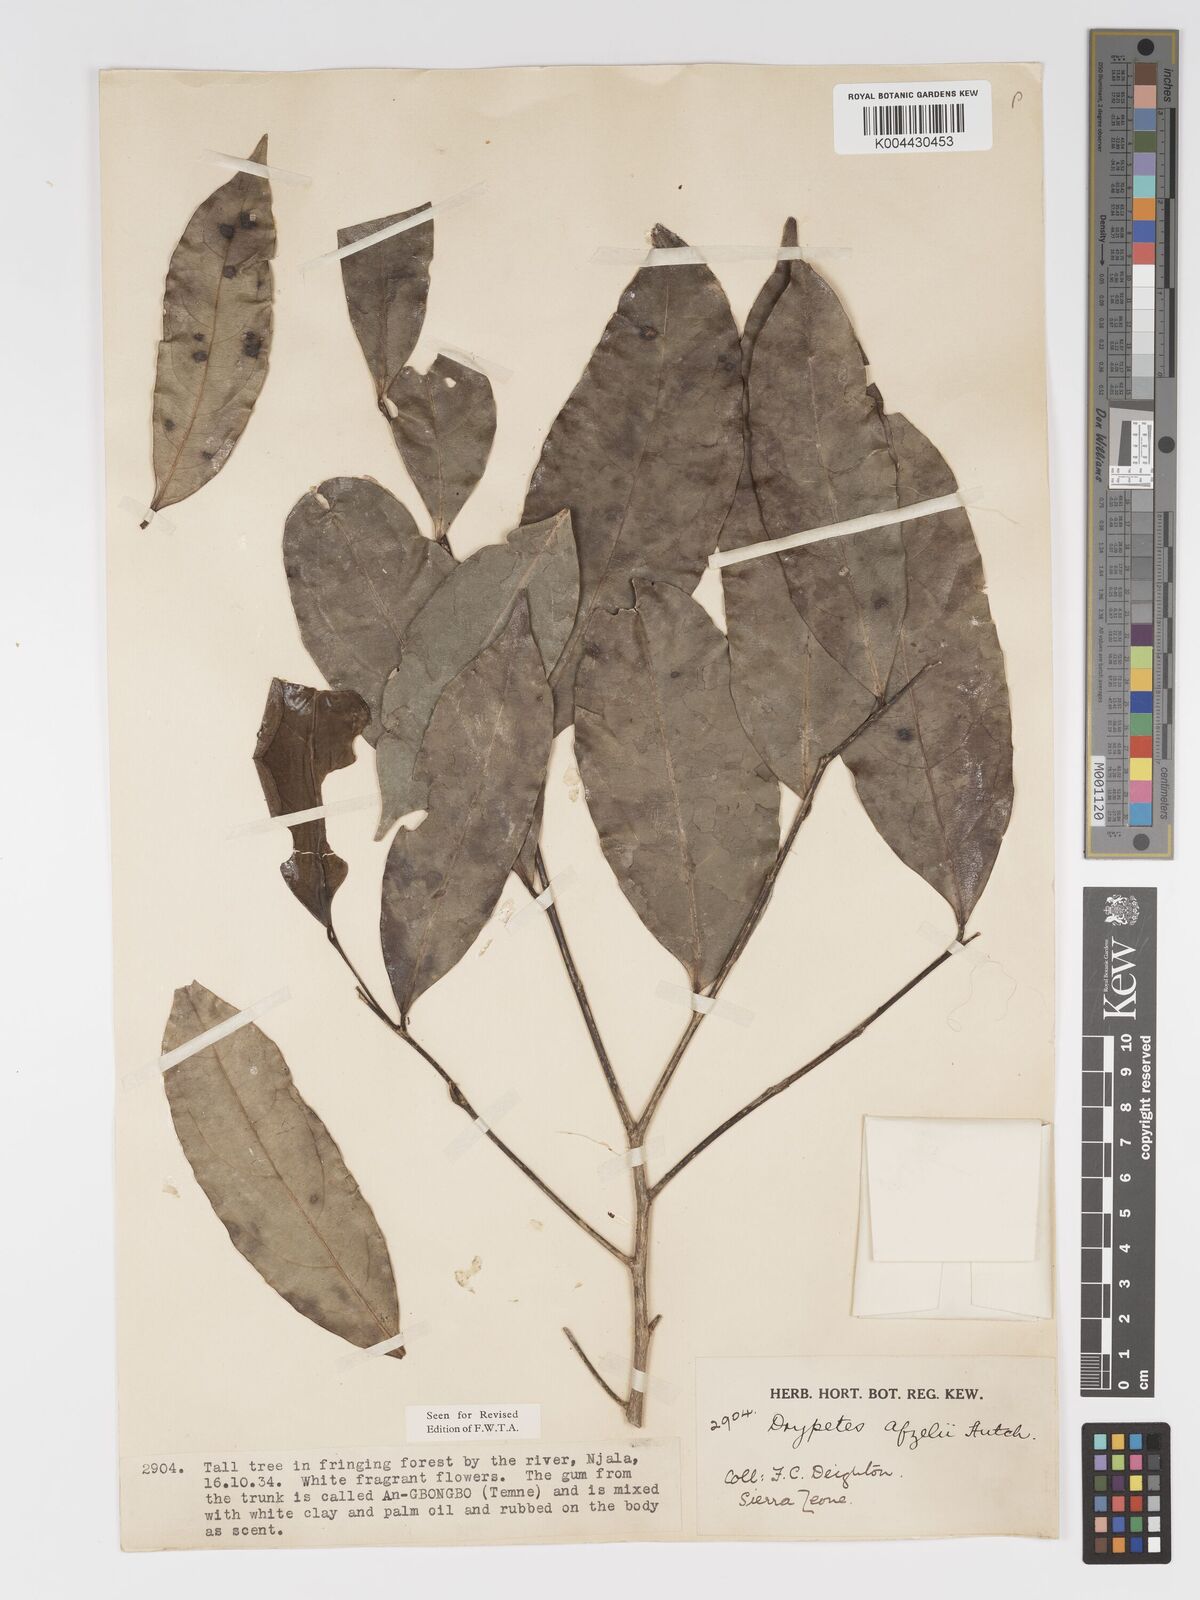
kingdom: Plantae
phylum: Tracheophyta
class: Magnoliopsida
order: Malpighiales
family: Putranjivaceae
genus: Drypetes
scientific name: Drypetes afzelii
